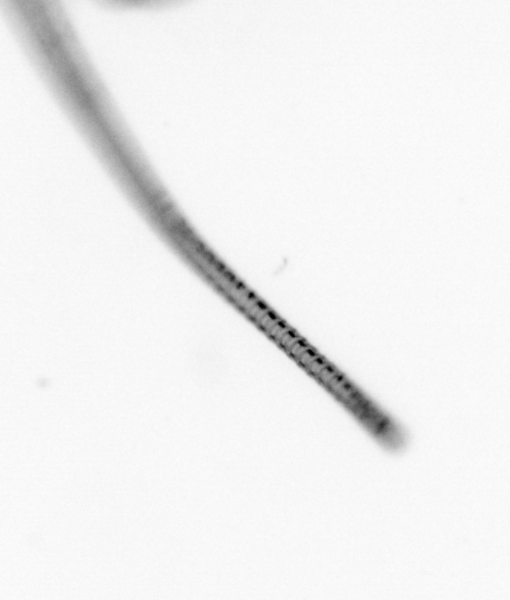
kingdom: Chromista
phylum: Ochrophyta
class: Bacillariophyceae
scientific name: Bacillariophyceae
